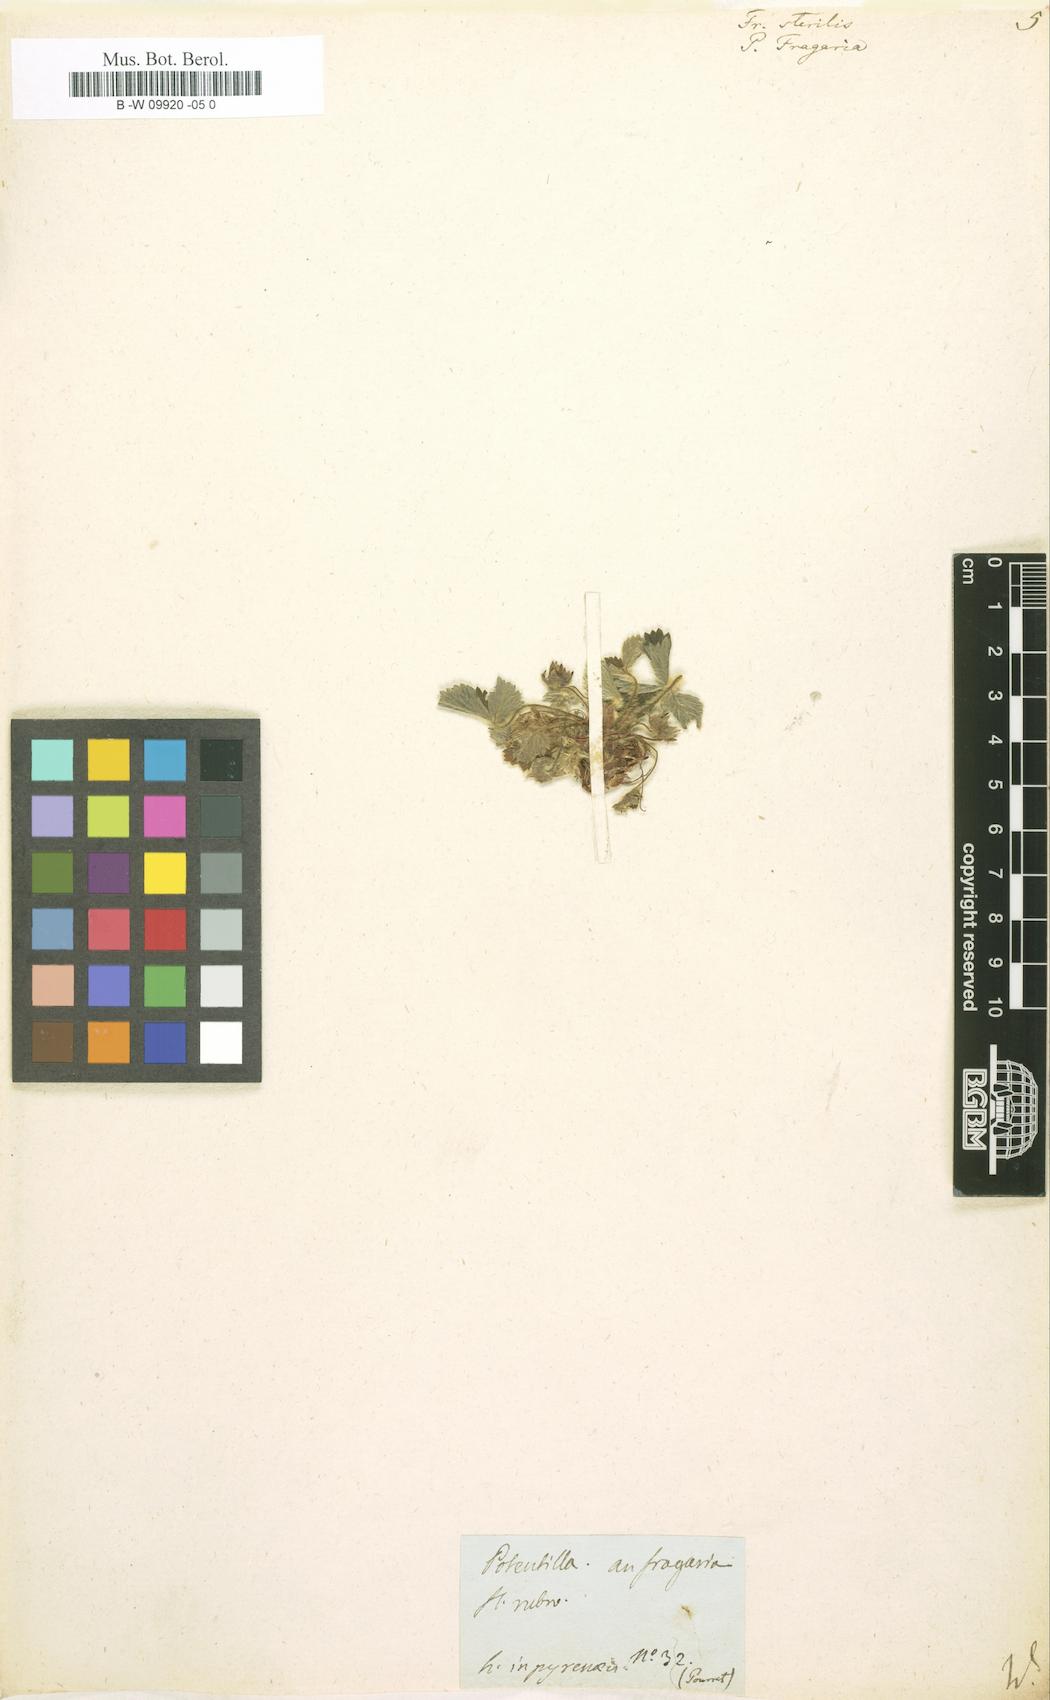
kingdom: Plantae
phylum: Tracheophyta
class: Magnoliopsida
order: Rosales
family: Rosaceae
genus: Potentilla
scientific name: Potentilla sterilis
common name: Barren strawberry
